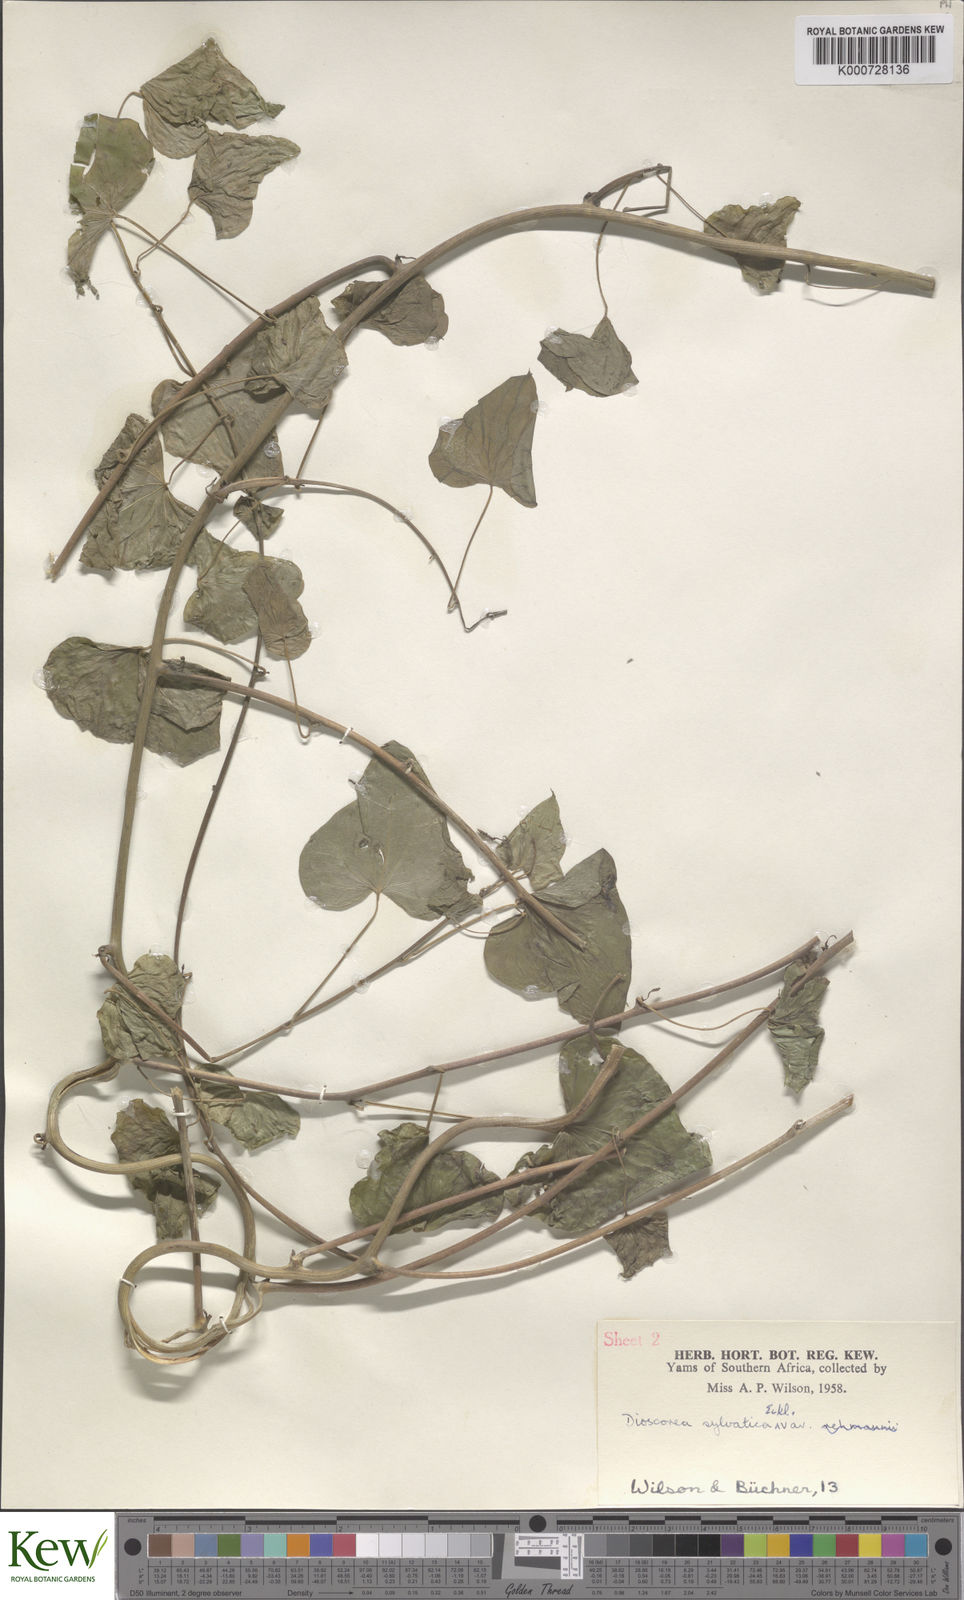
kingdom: Plantae
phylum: Tracheophyta
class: Liliopsida
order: Dioscoreales
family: Dioscoreaceae
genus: Dioscorea
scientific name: Dioscorea sylvatica
